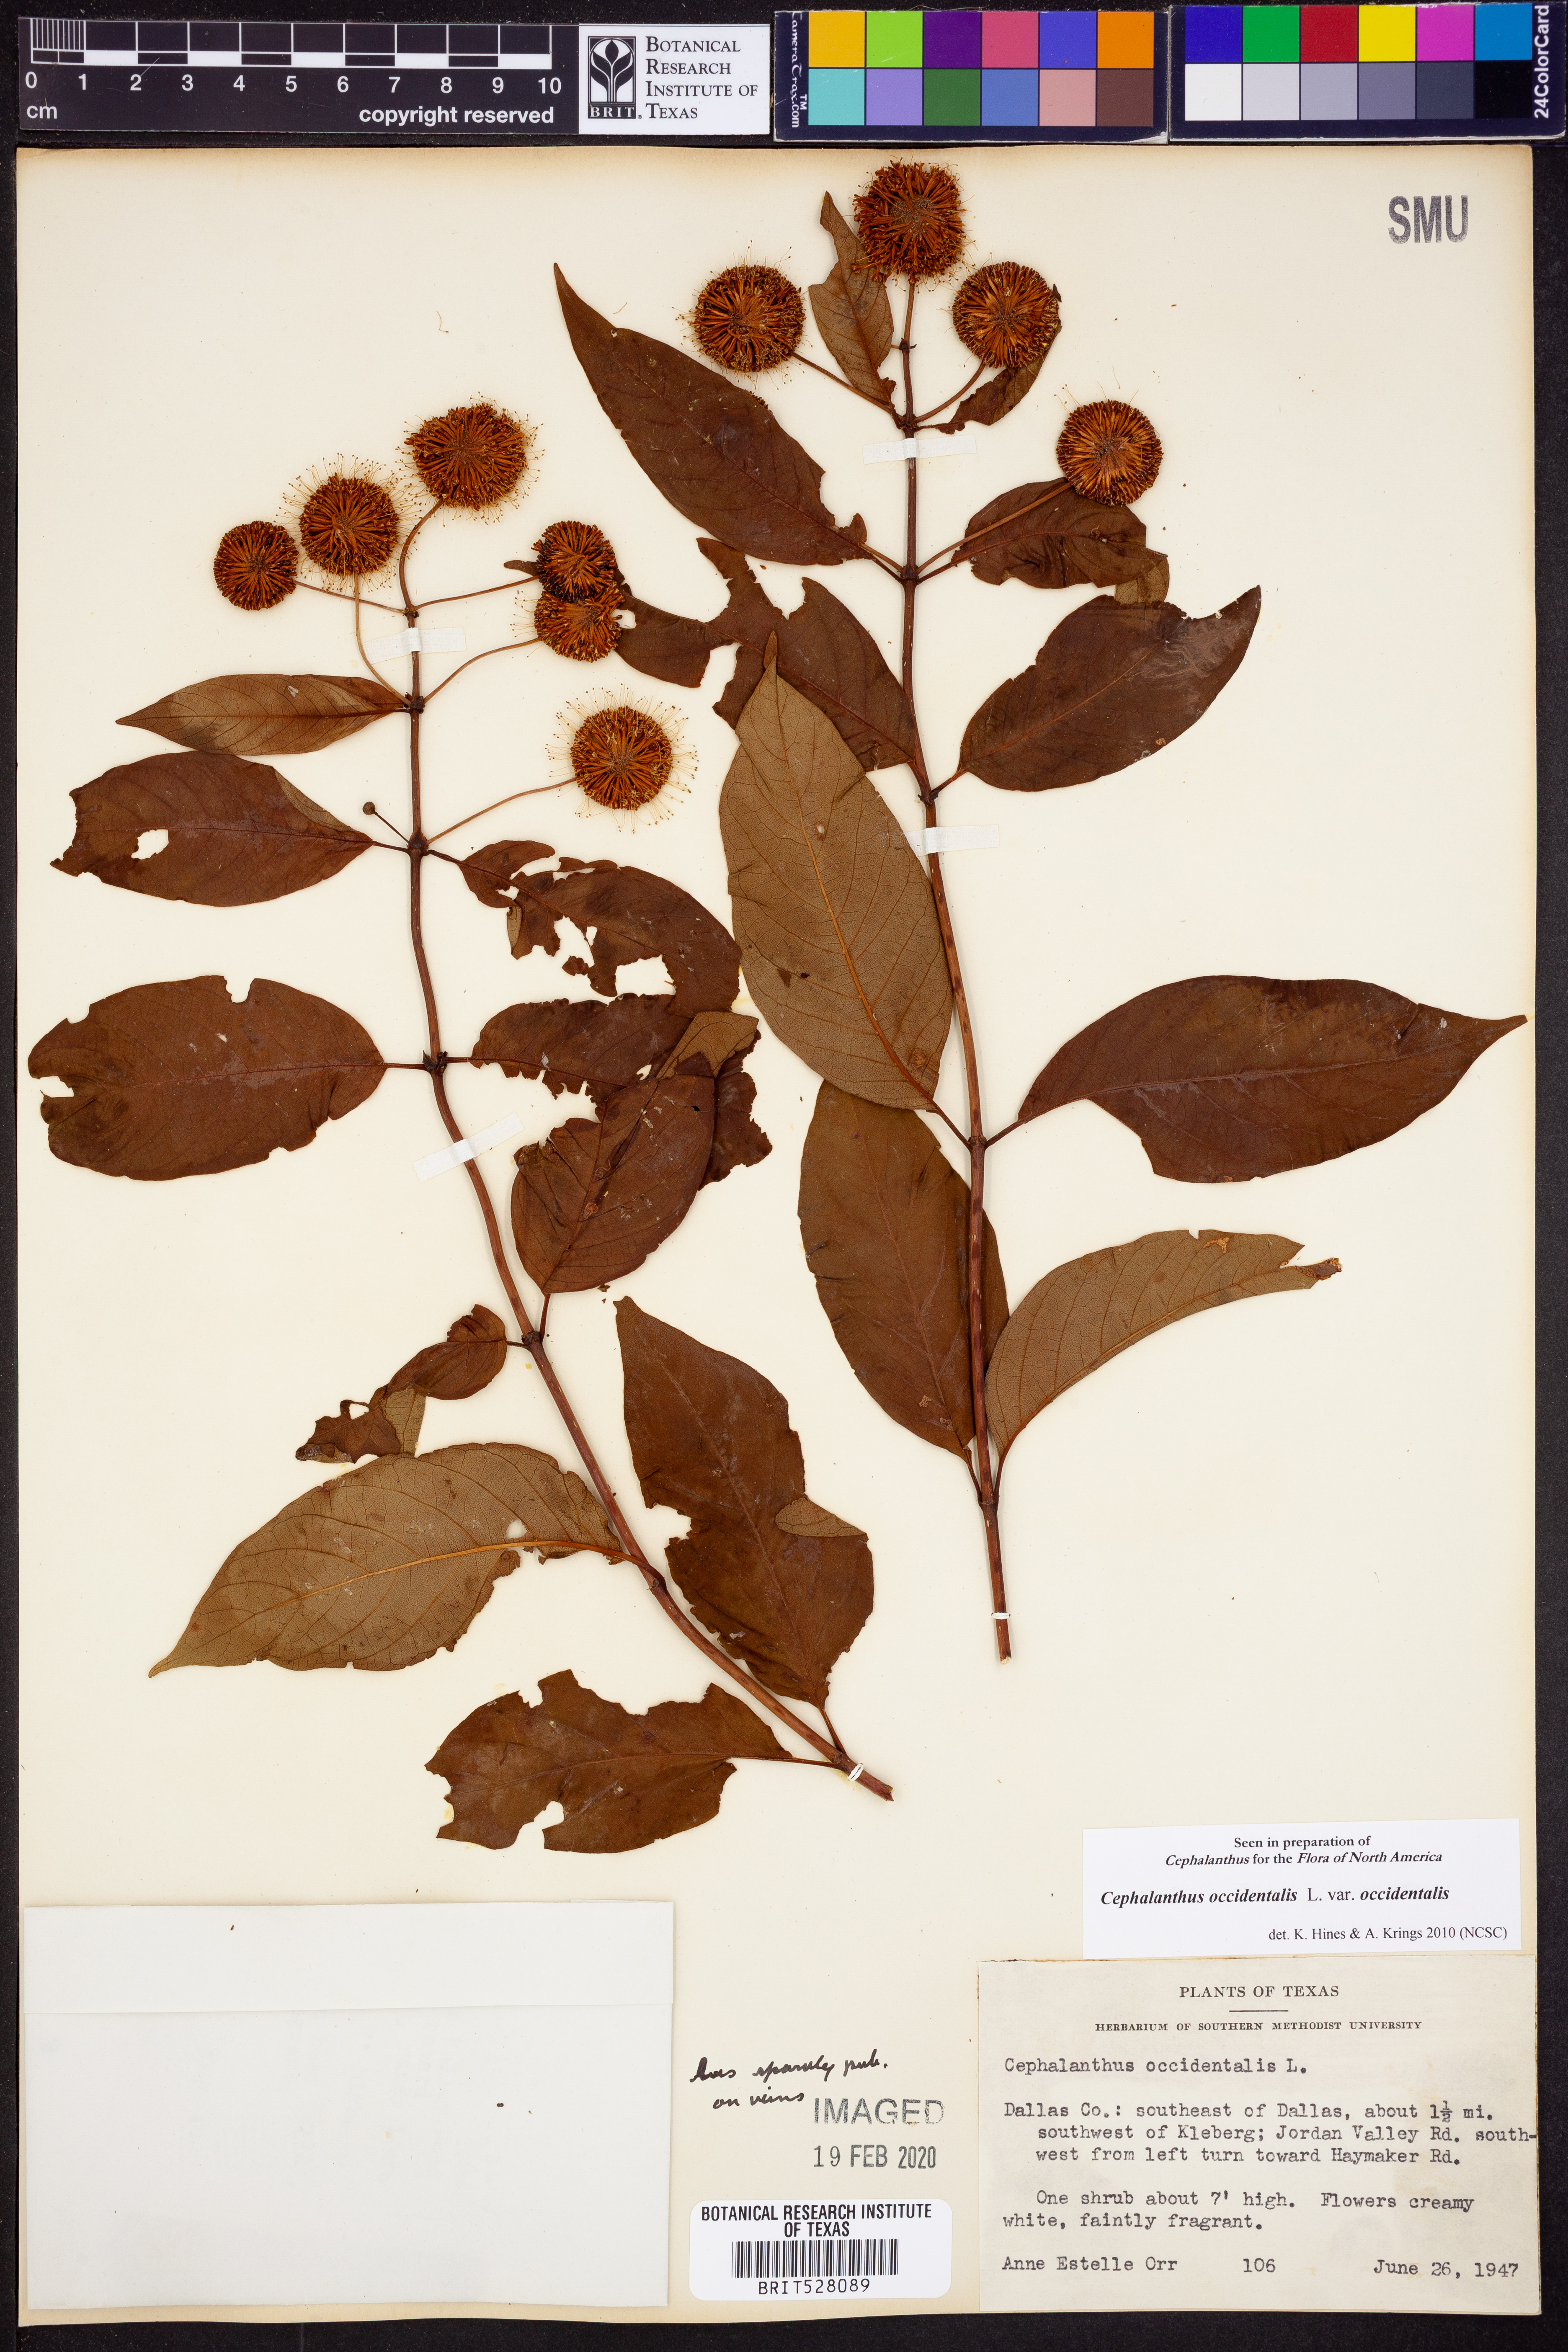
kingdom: Plantae
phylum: Tracheophyta
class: Magnoliopsida
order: Gentianales
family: Rubiaceae
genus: Cephalanthus
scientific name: Cephalanthus occidentalis
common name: Button-willow
